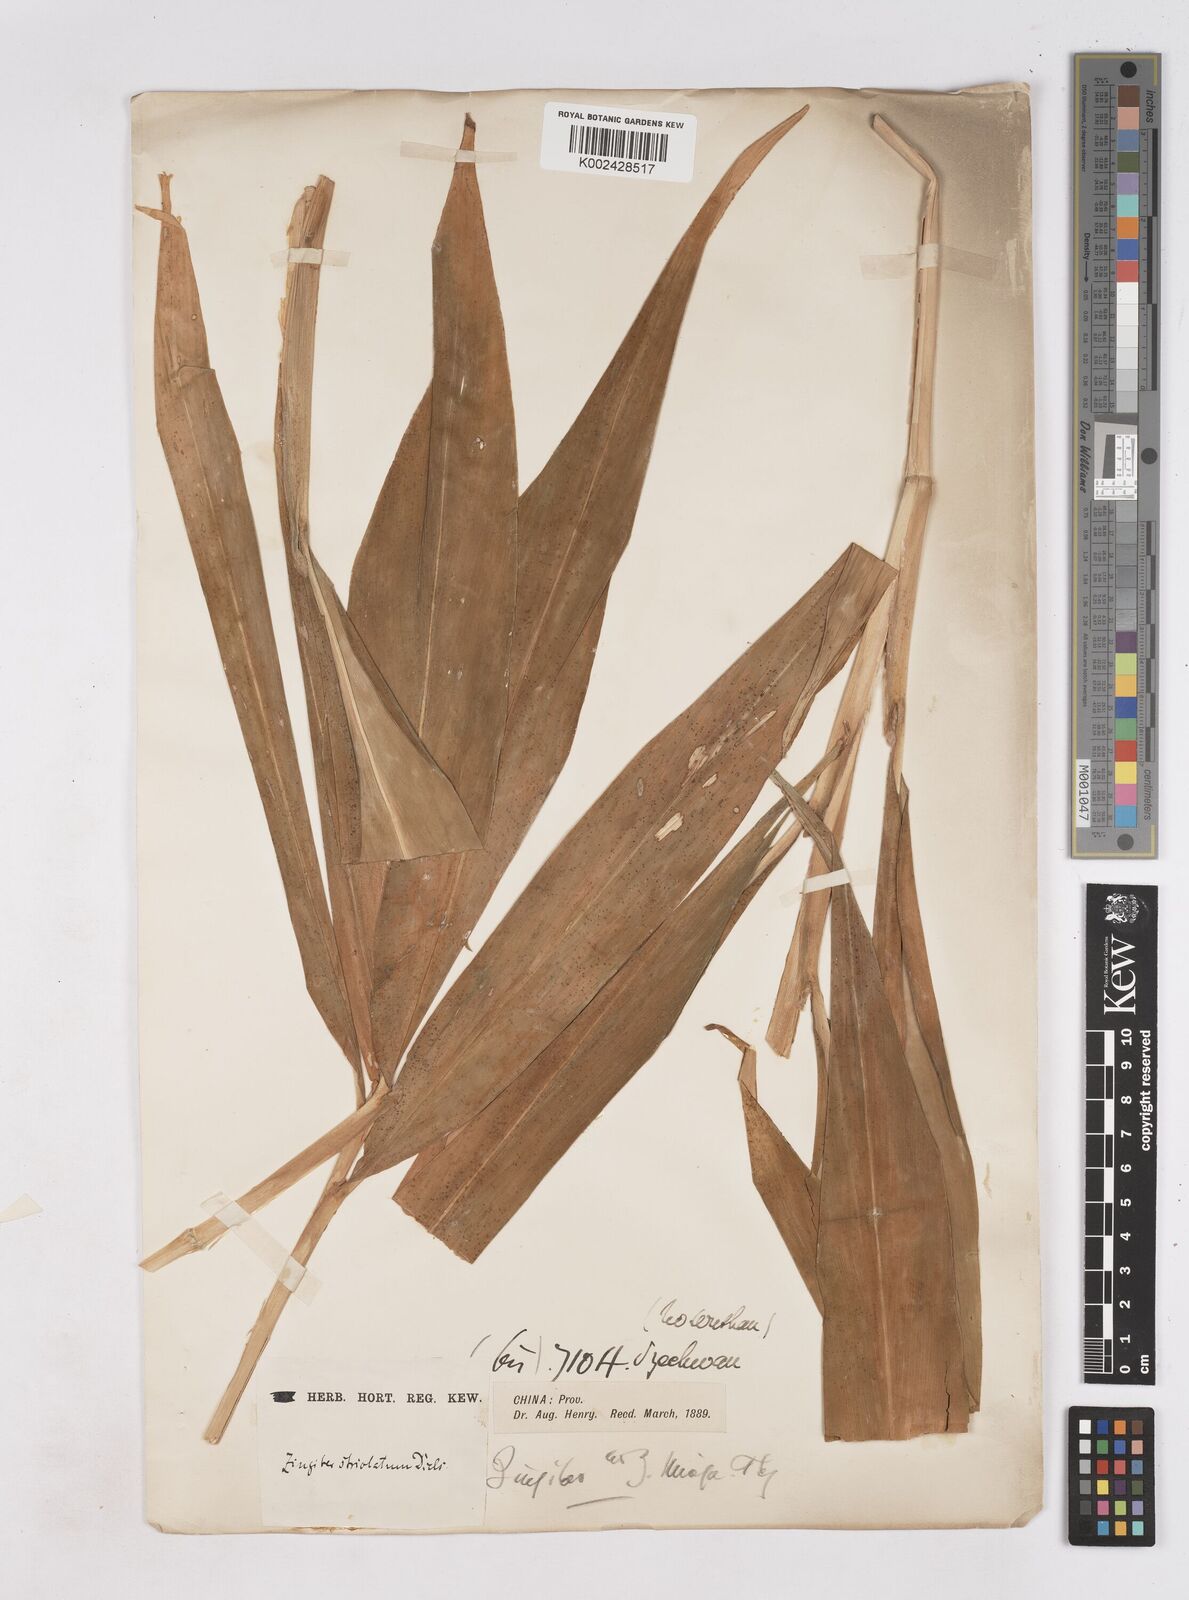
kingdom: Plantae
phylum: Tracheophyta
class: Liliopsida
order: Zingiberales
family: Zingiberaceae
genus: Zingiber
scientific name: Zingiber striolatum
